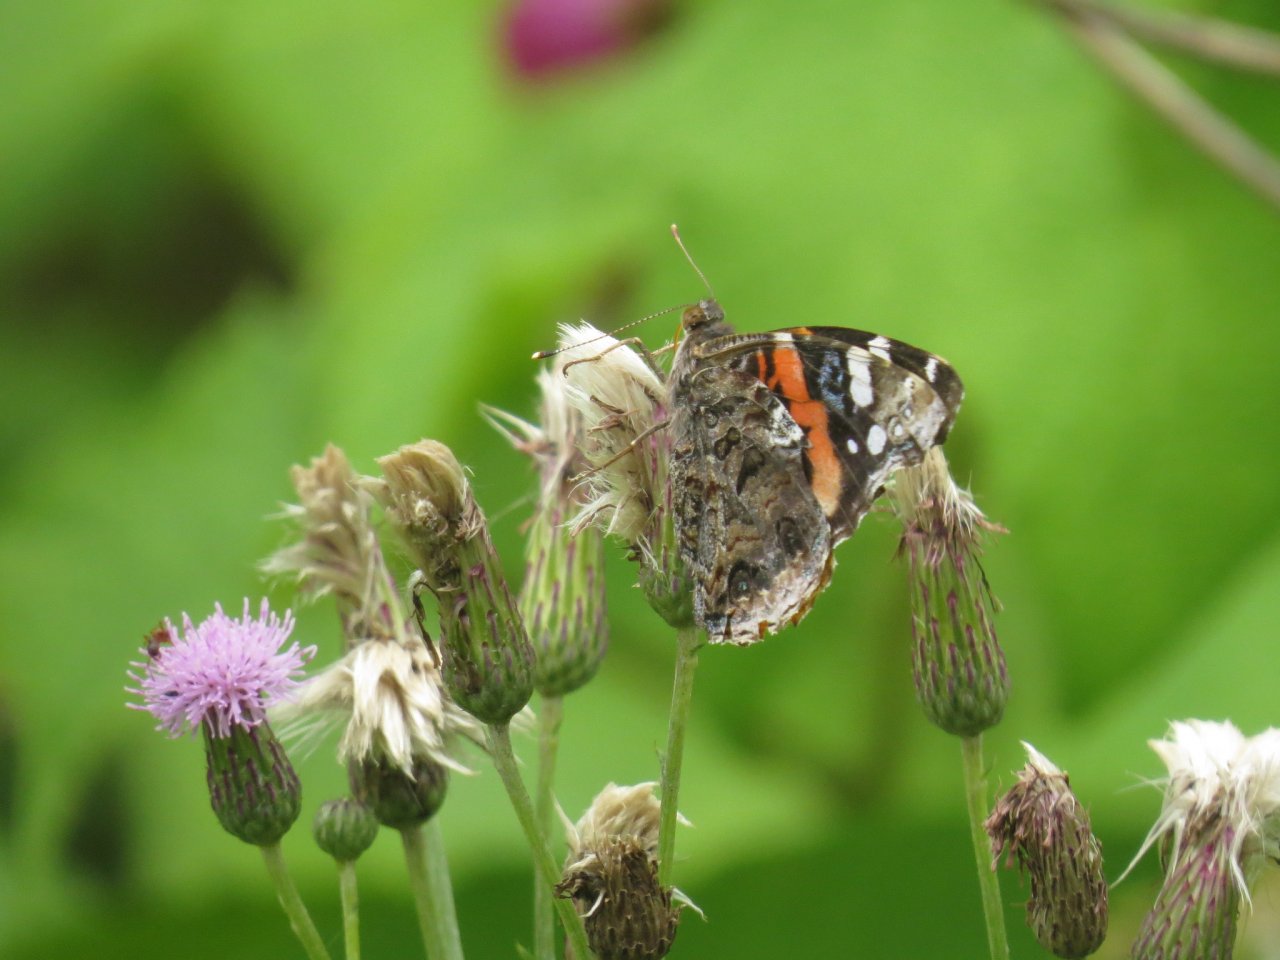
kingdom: Animalia
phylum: Arthropoda
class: Insecta
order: Lepidoptera
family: Nymphalidae
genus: Vanessa
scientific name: Vanessa atalanta
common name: Red Admiral
